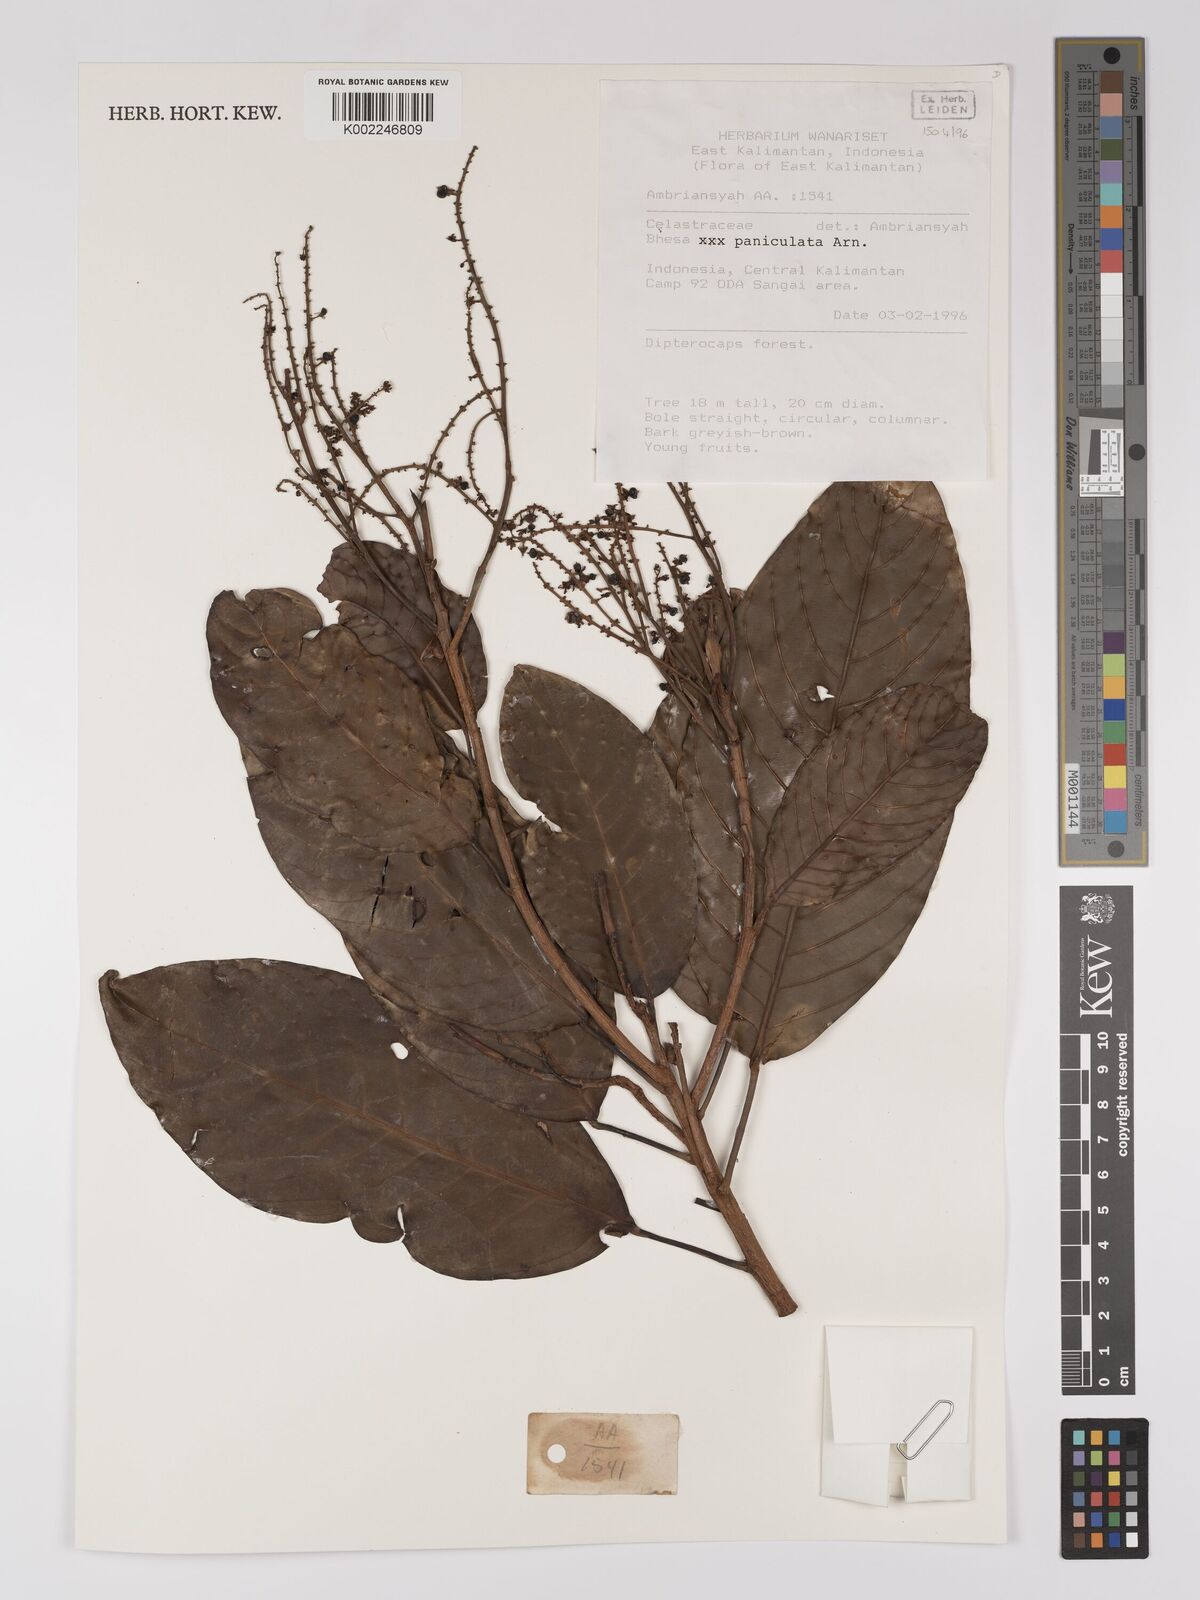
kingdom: Plantae
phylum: Tracheophyta
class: Magnoliopsida
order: Malpighiales
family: Centroplacaceae
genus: Bhesa
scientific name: Bhesa paniculata
